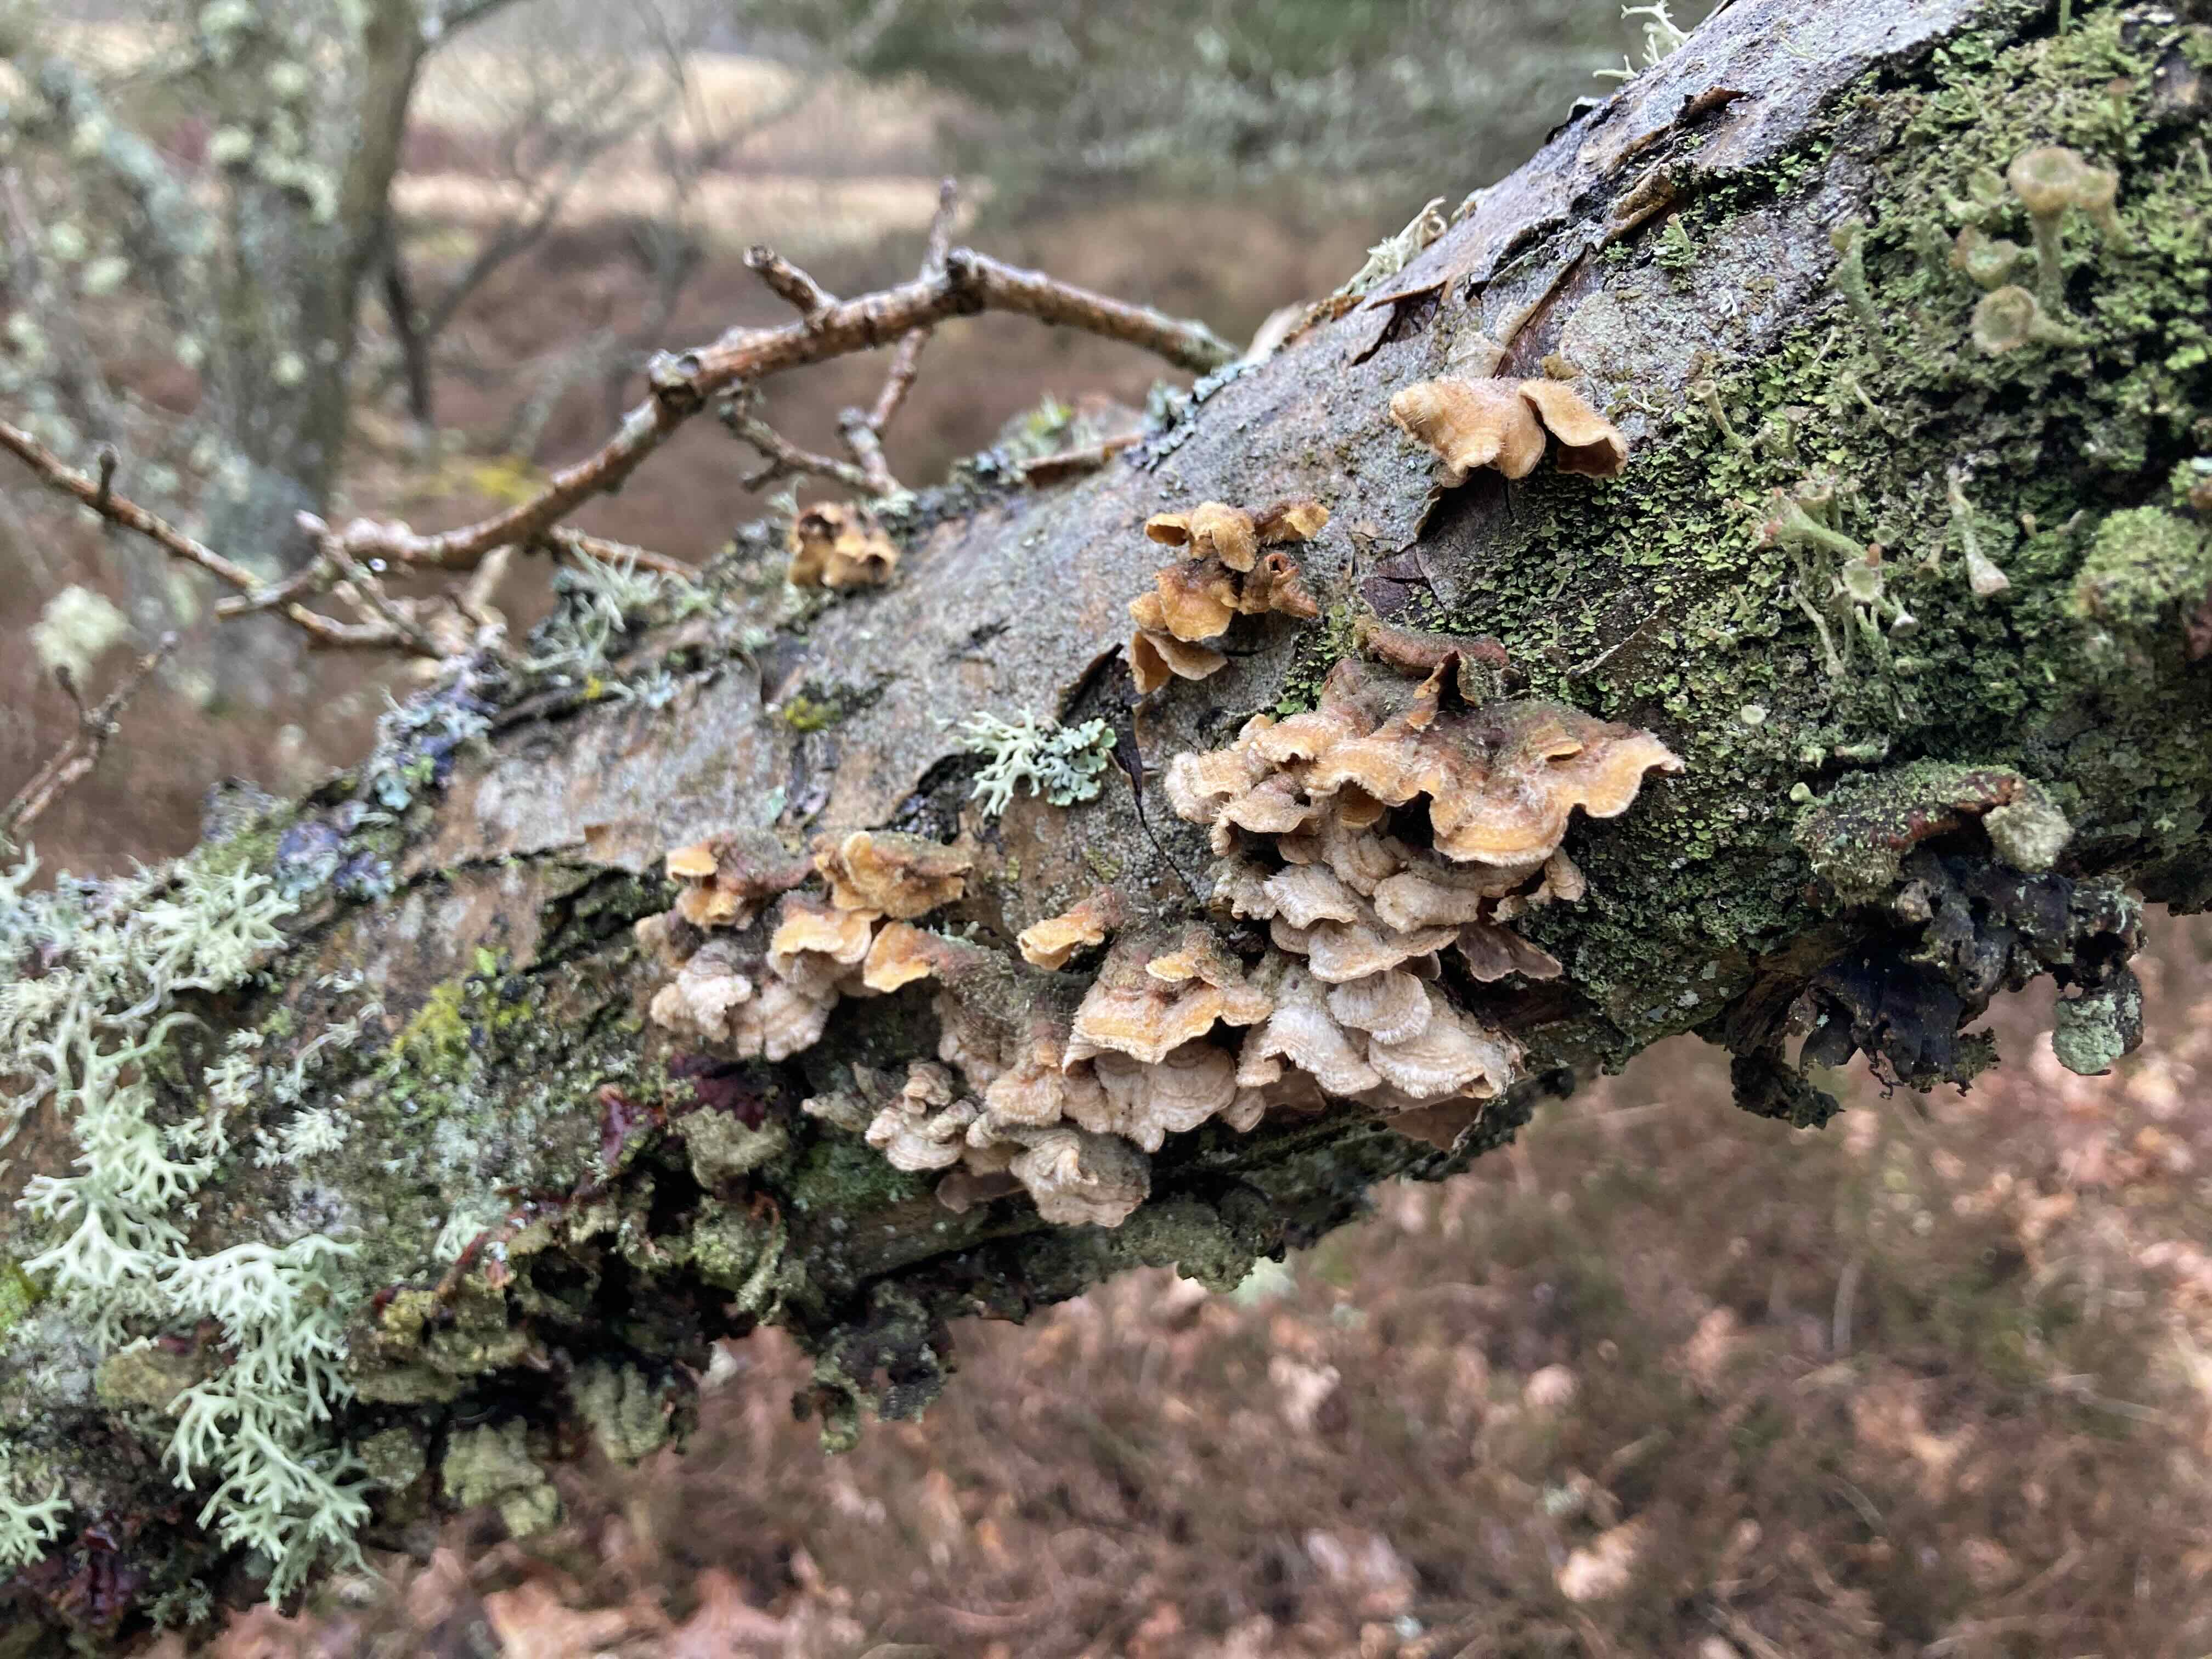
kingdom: Fungi
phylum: Basidiomycota
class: Agaricomycetes
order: Russulales
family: Stereaceae
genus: Stereum
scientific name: Stereum hirsutum
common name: håret lædersvamp
